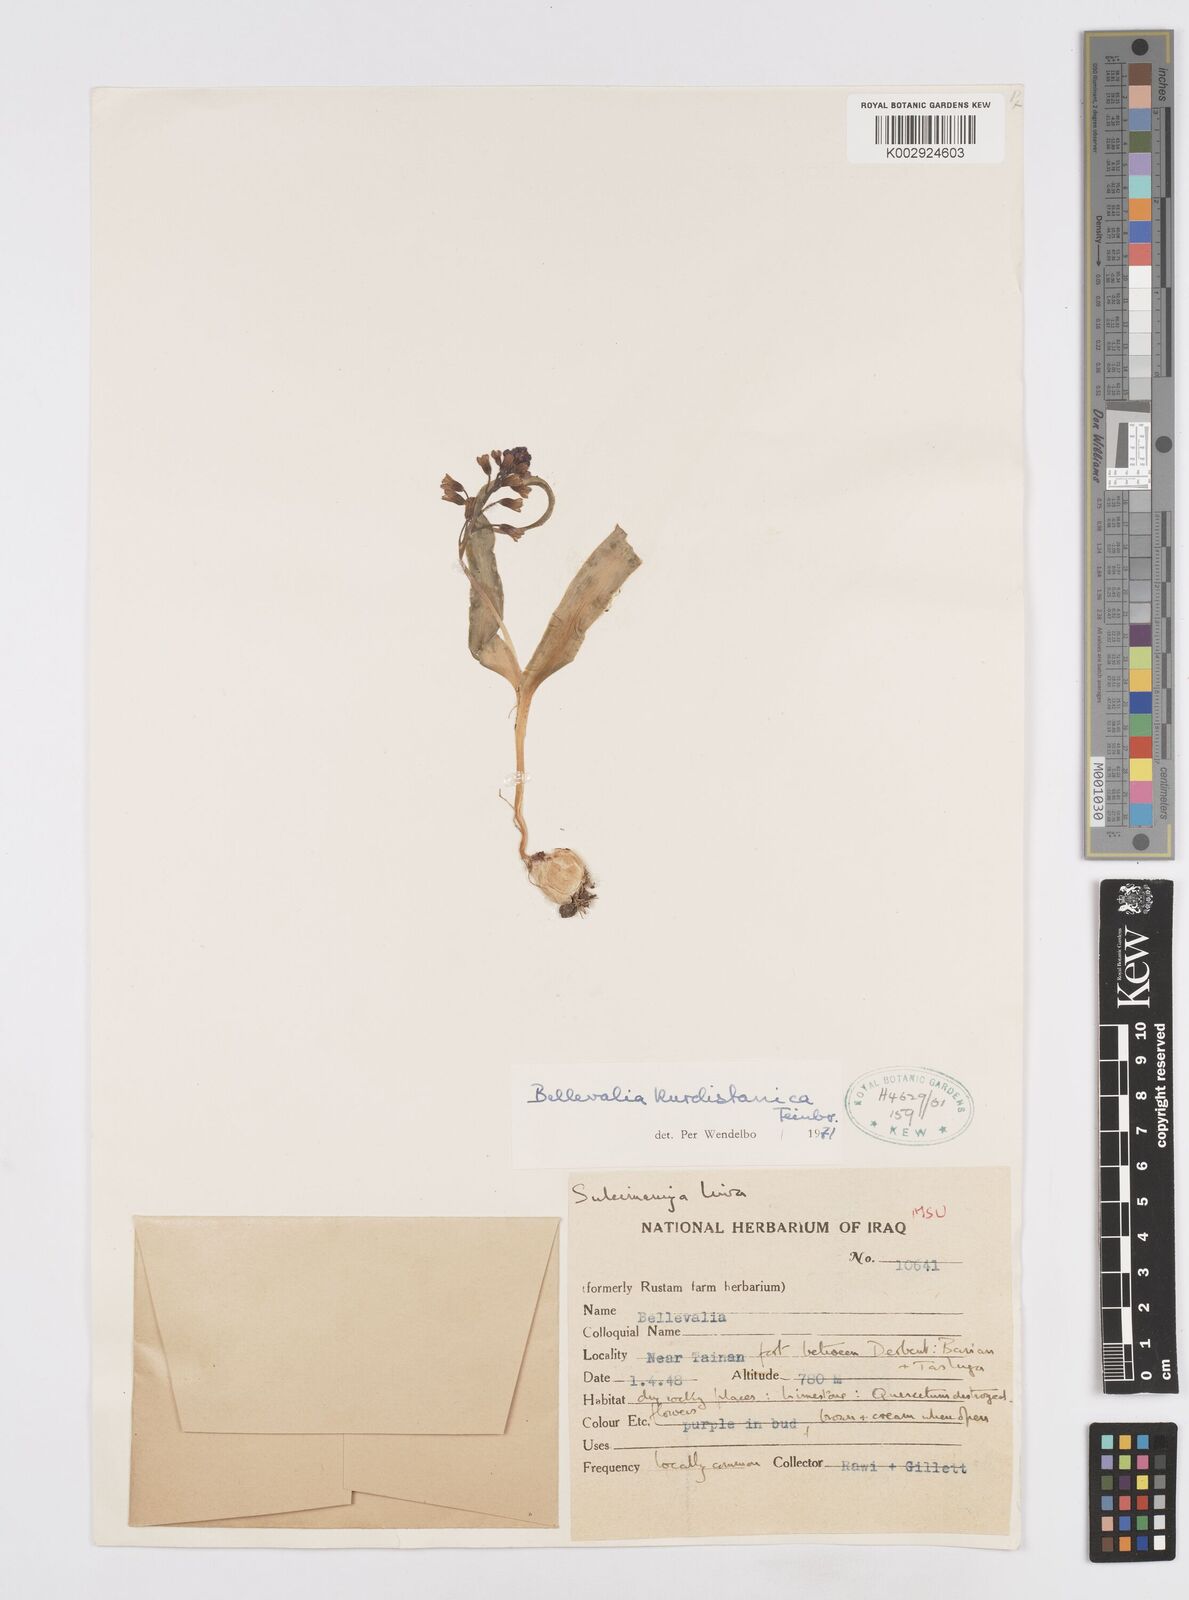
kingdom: Plantae
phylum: Tracheophyta
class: Liliopsida
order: Asparagales
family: Asparagaceae
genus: Bellevalia
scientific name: Bellevalia kurdistanica
